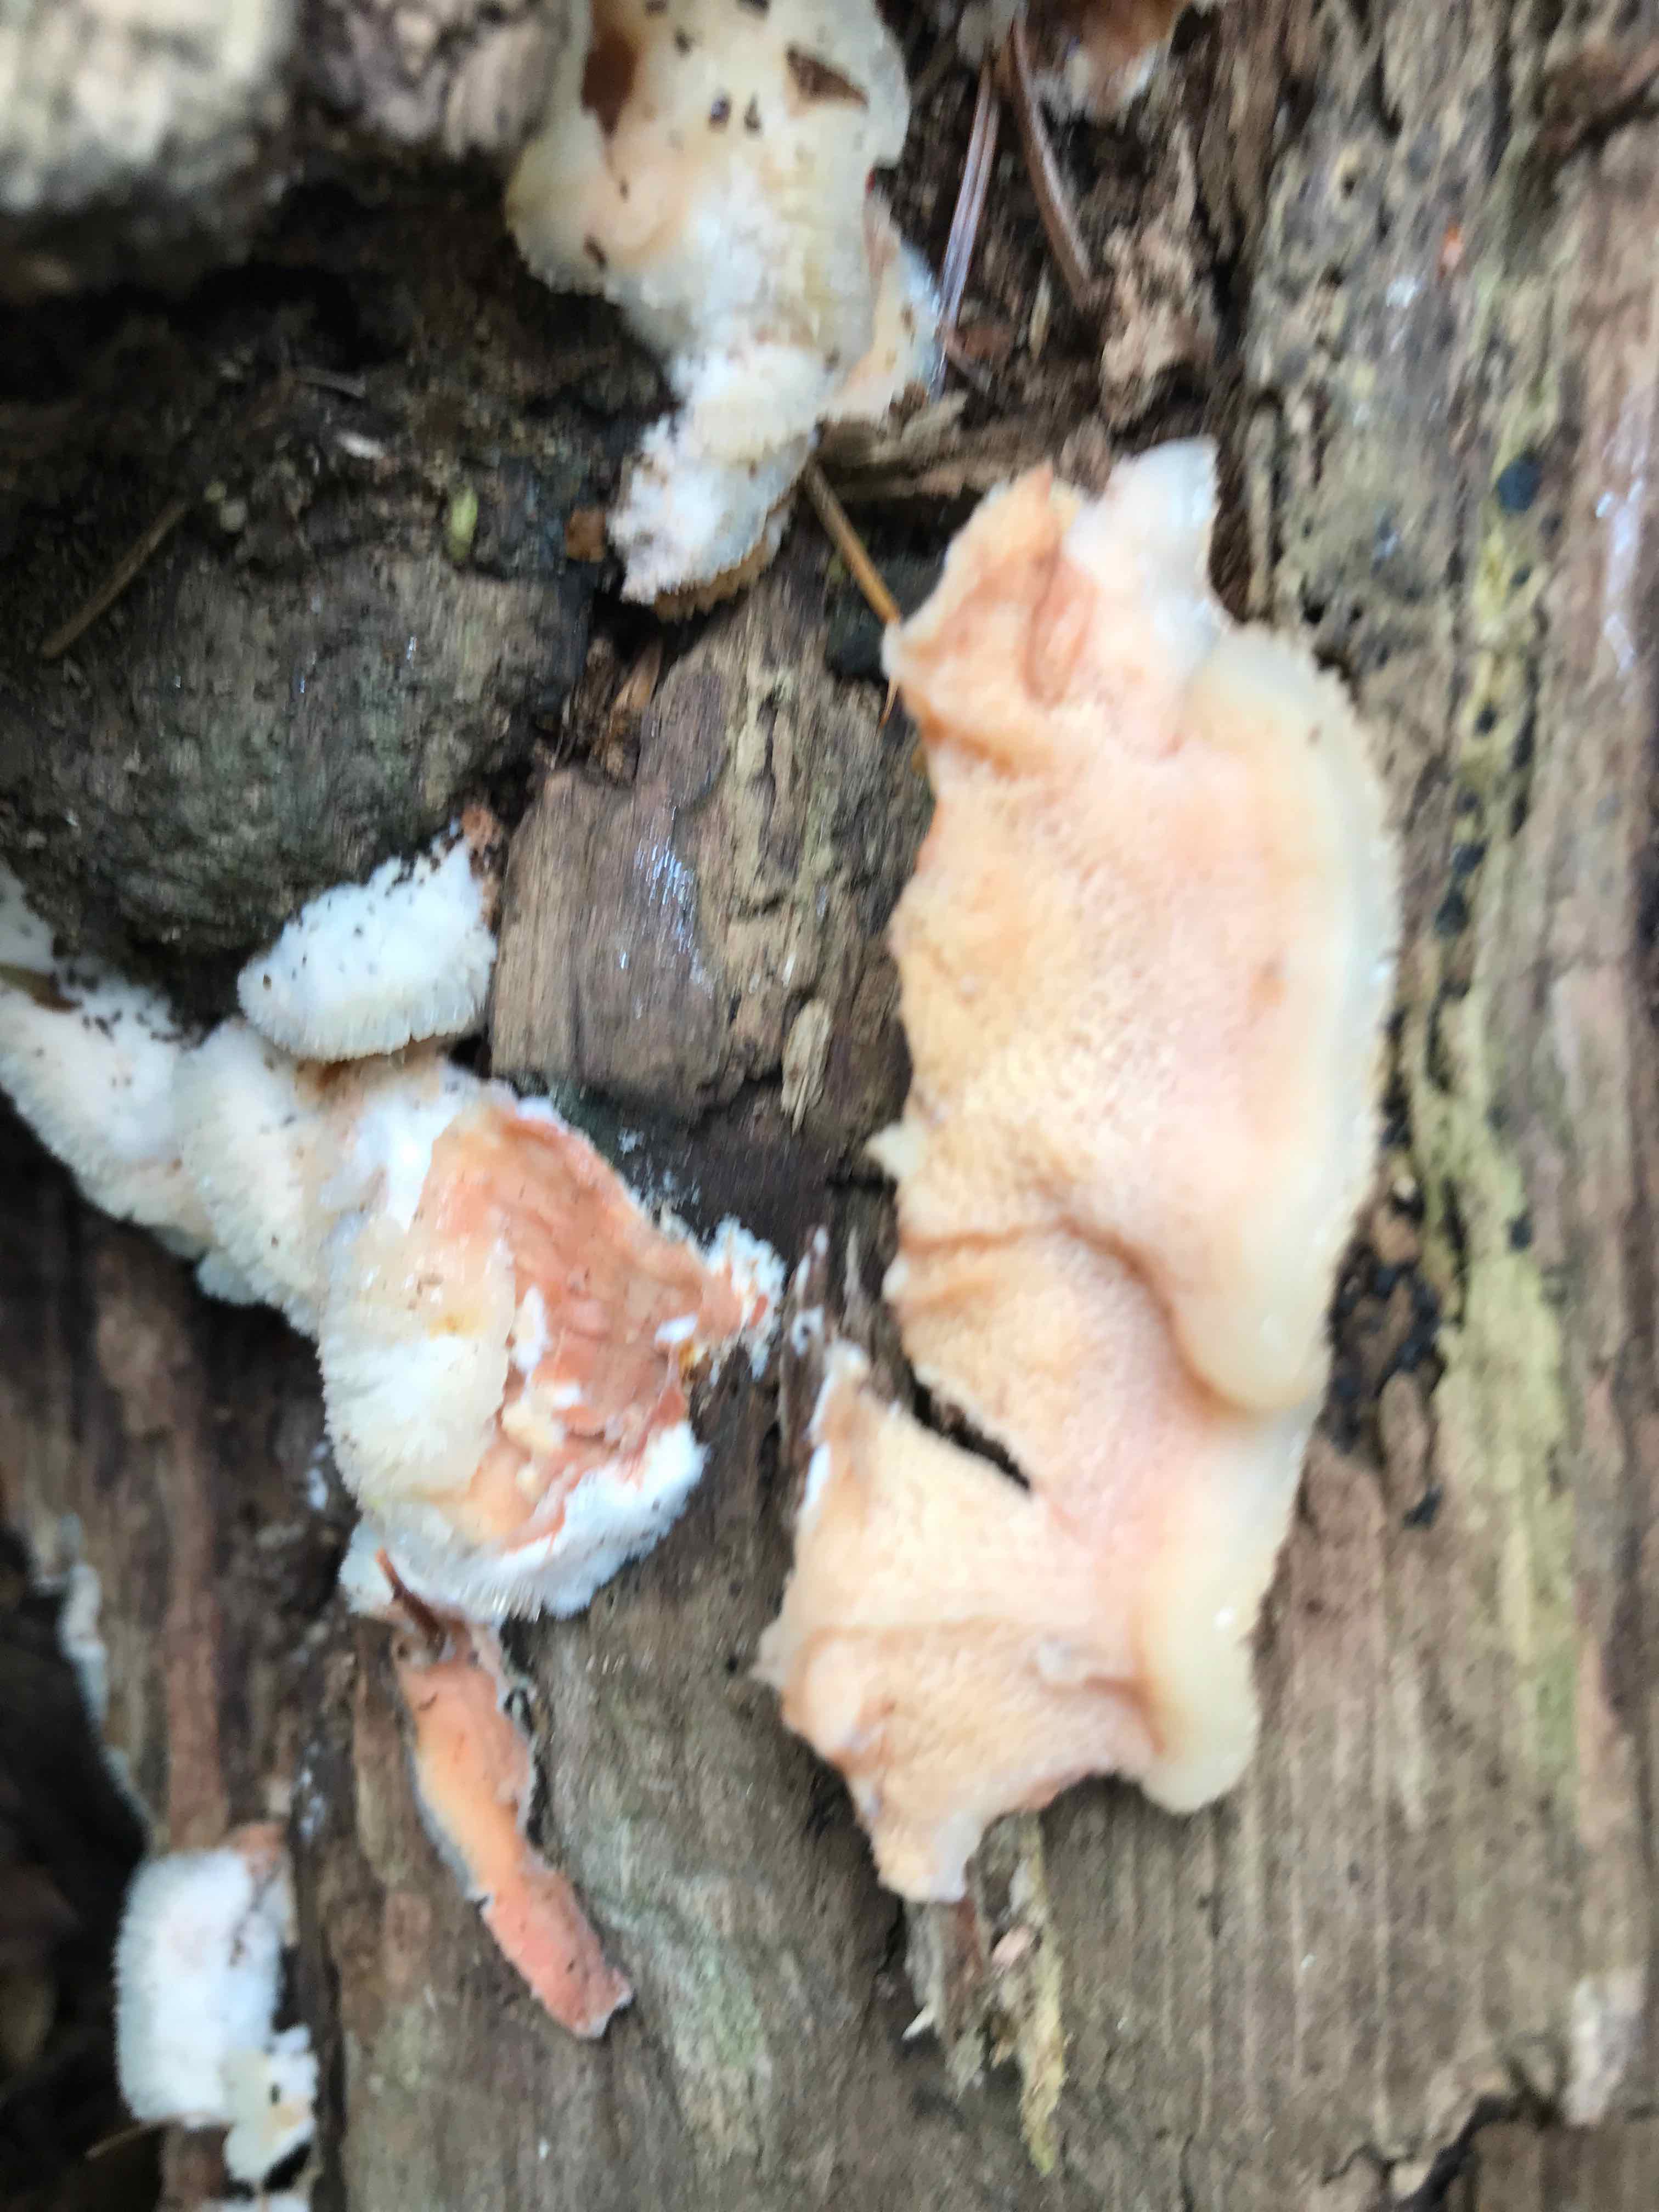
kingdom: Fungi
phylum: Basidiomycota
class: Agaricomycetes
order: Polyporales
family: Meruliaceae
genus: Phlebia
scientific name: Phlebia tremellosa
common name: bævrende åresvamp
